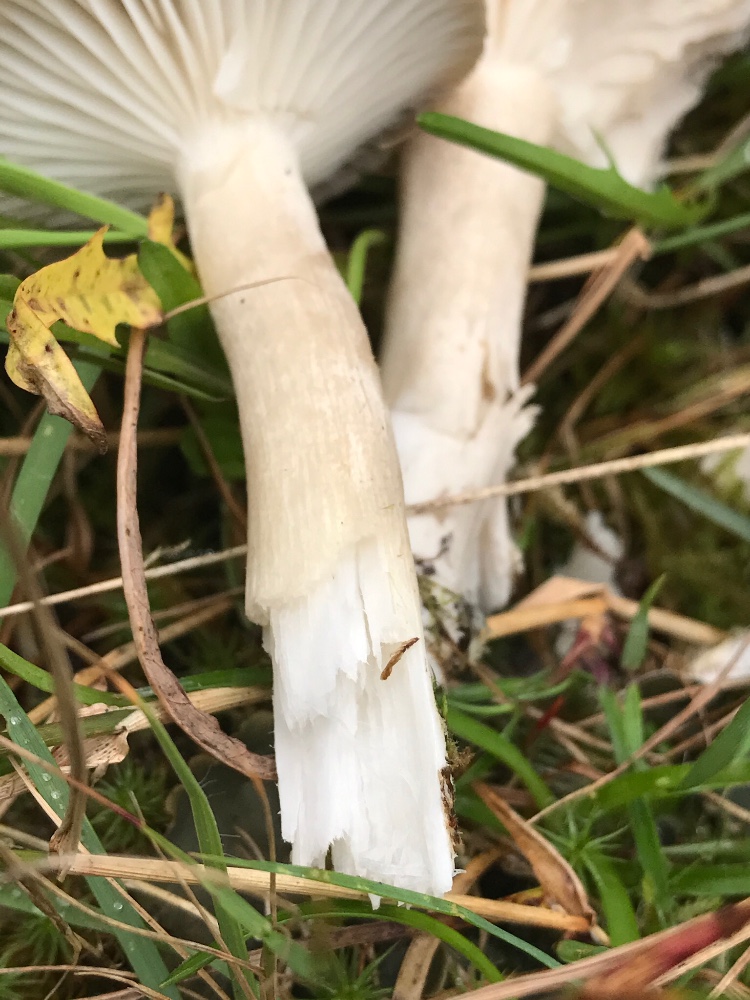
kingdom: Fungi
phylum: Basidiomycota
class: Agaricomycetes
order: Agaricales
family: Hygrophoraceae
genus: Hygrophorus
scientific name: Hygrophorus agathosmus
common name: vellugtende sneglehat
